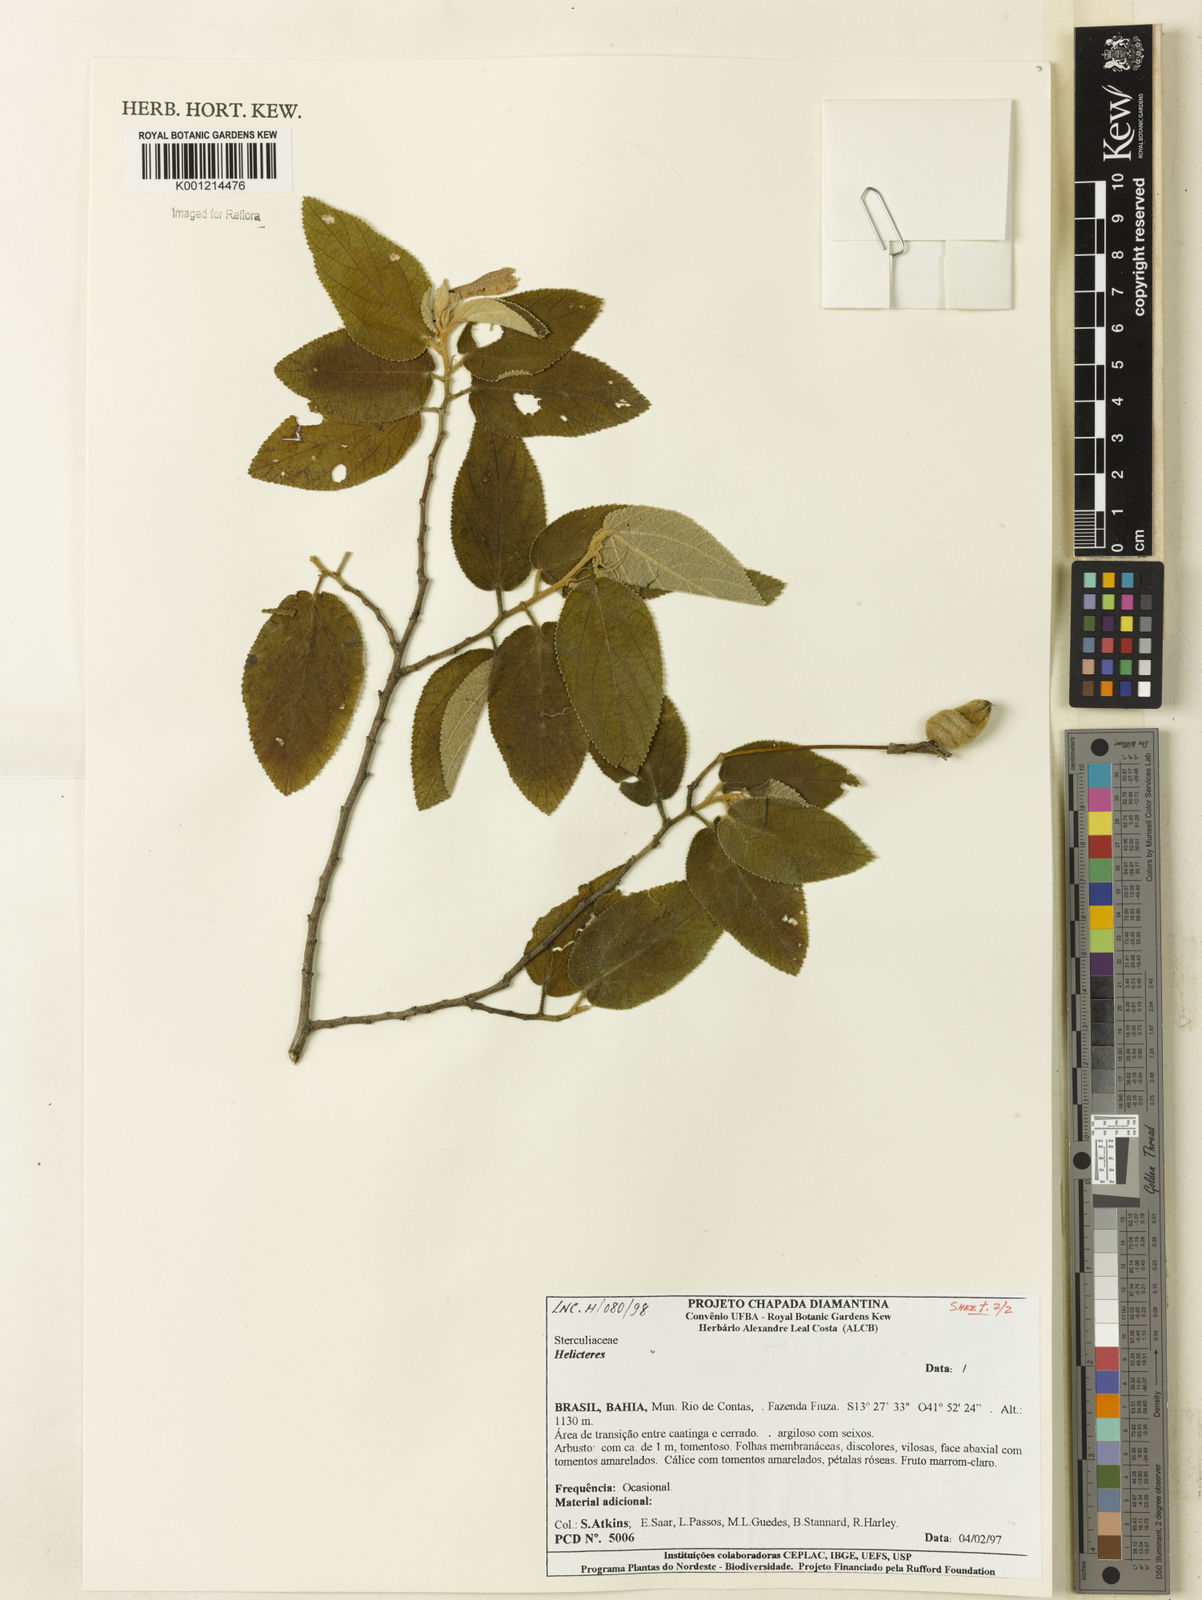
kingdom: Plantae
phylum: Tracheophyta
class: Magnoliopsida
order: Malvales
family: Malvaceae
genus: Helicteres
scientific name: Helicteres
